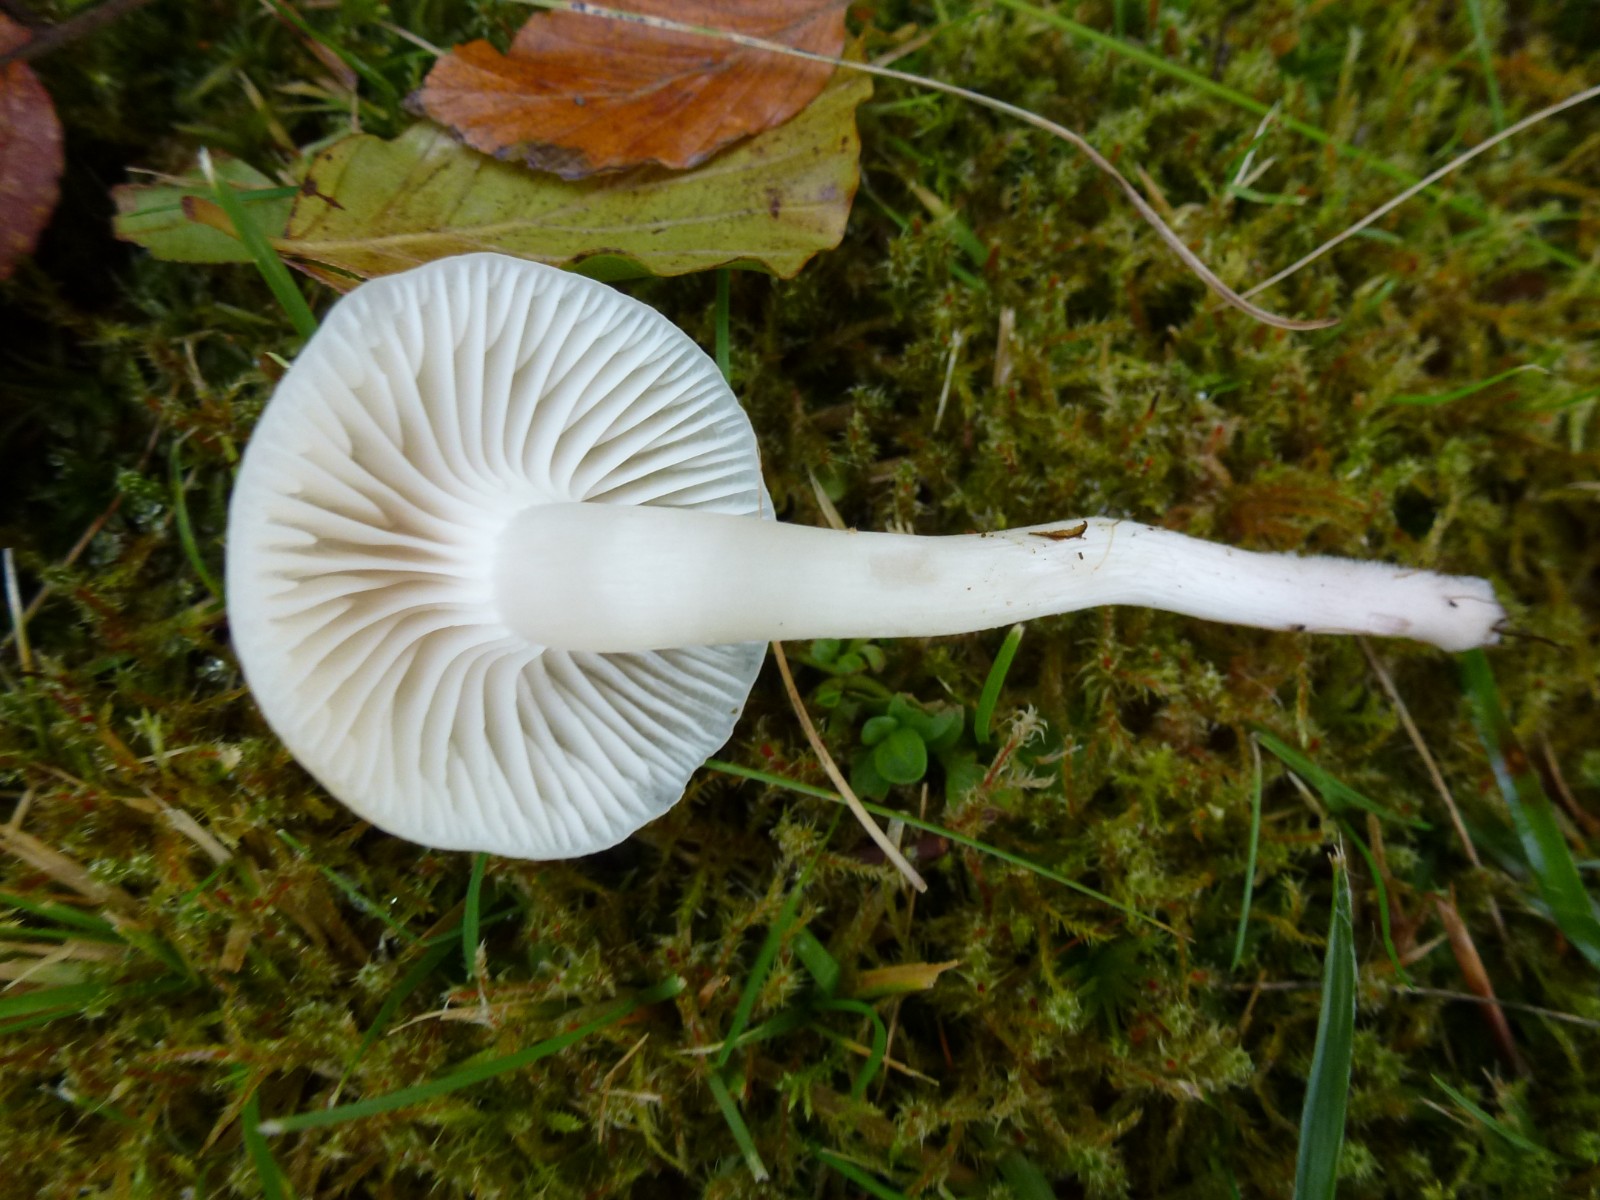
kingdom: Fungi
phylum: Basidiomycota
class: Agaricomycetes
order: Agaricales
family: Hygrophoraceae
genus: Cuphophyllus
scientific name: Cuphophyllus virgineus
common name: snehvid vokshat
